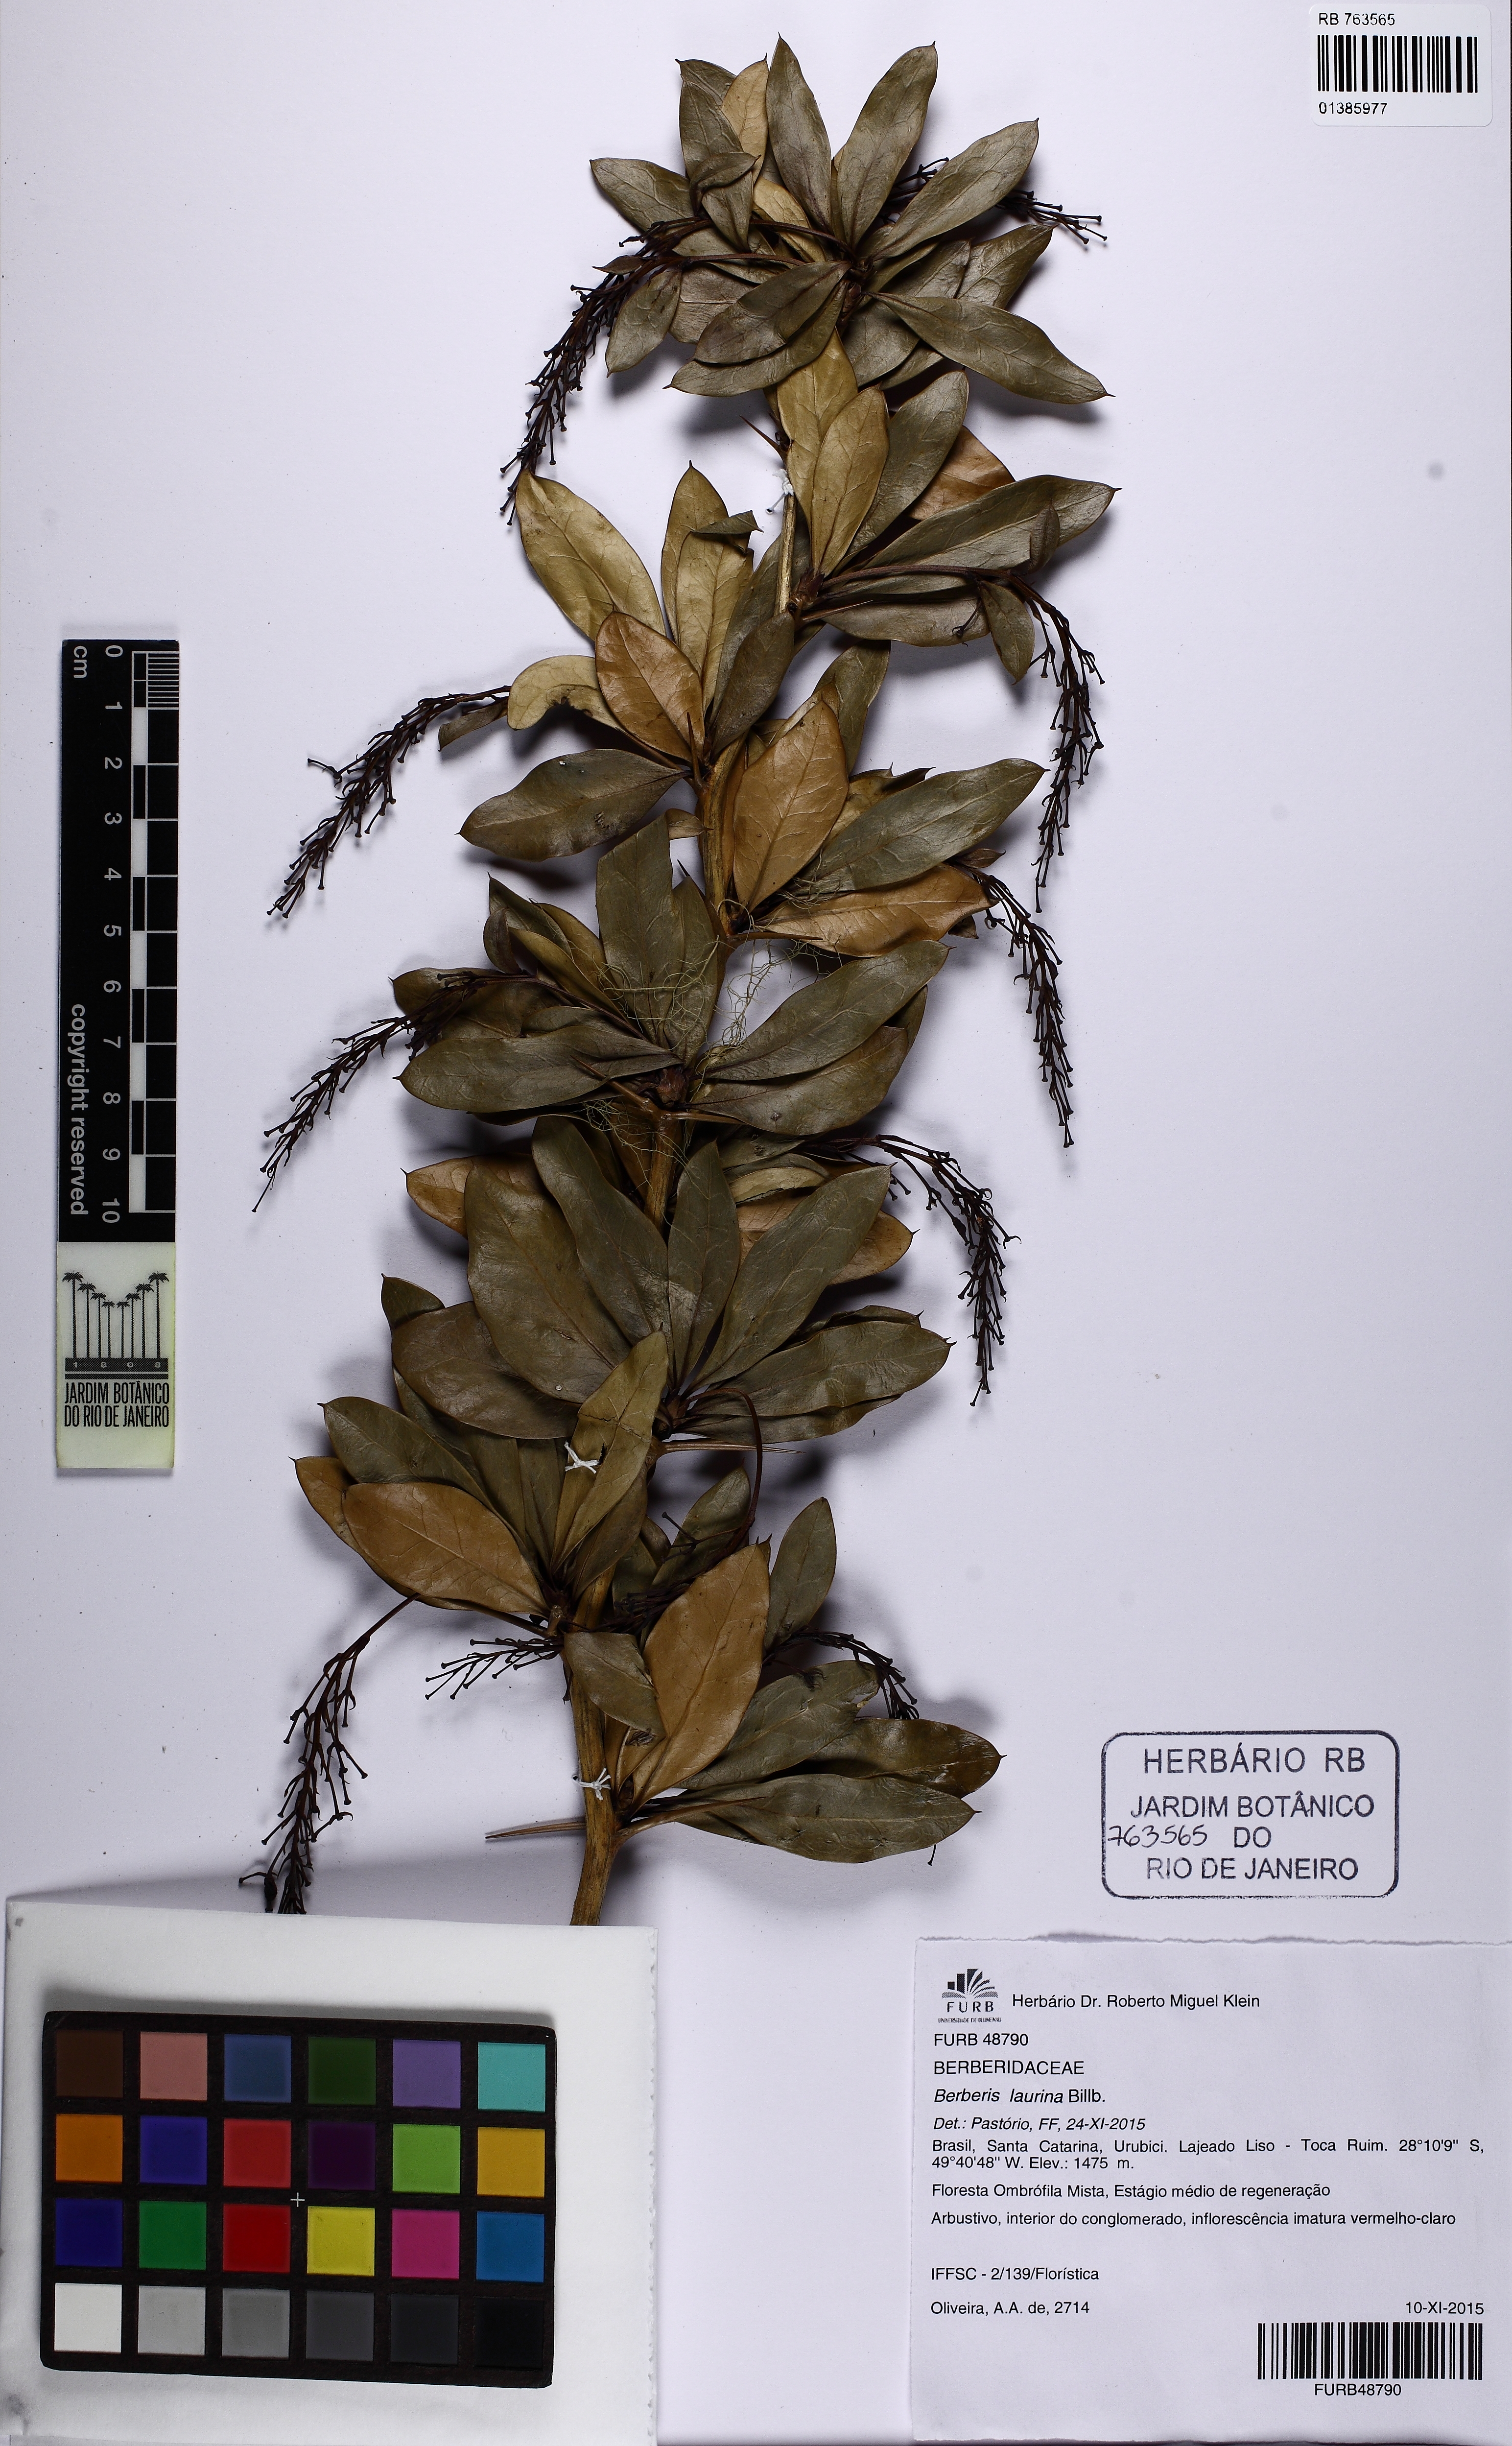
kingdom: Plantae
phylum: Tracheophyta
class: Magnoliopsida
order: Ranunculales
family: Berberidaceae
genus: Berberis
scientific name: Berberis laurina
